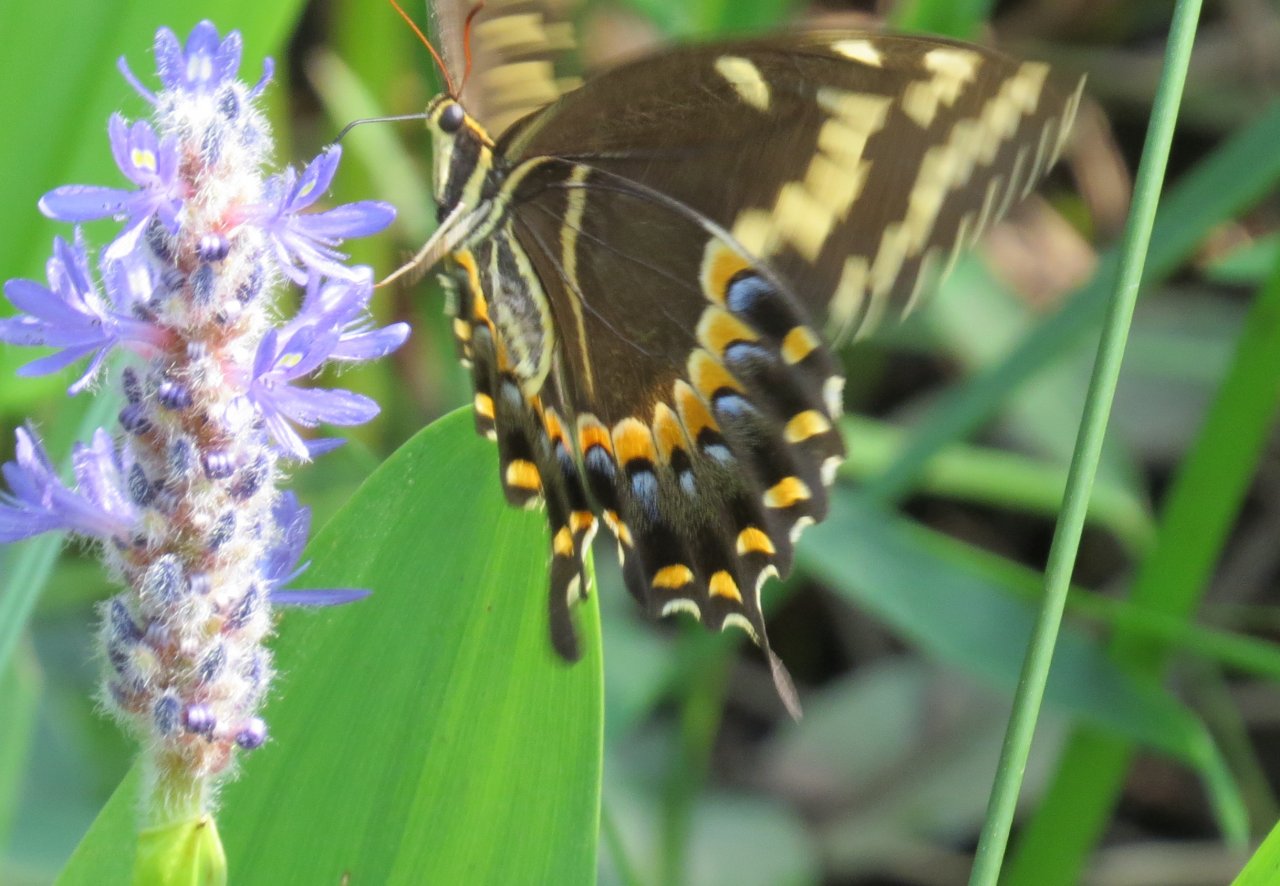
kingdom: Animalia
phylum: Arthropoda
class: Insecta
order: Lepidoptera
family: Papilionidae
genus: Pterourus
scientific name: Pterourus palamedes
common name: Palamedes Swallowtail
